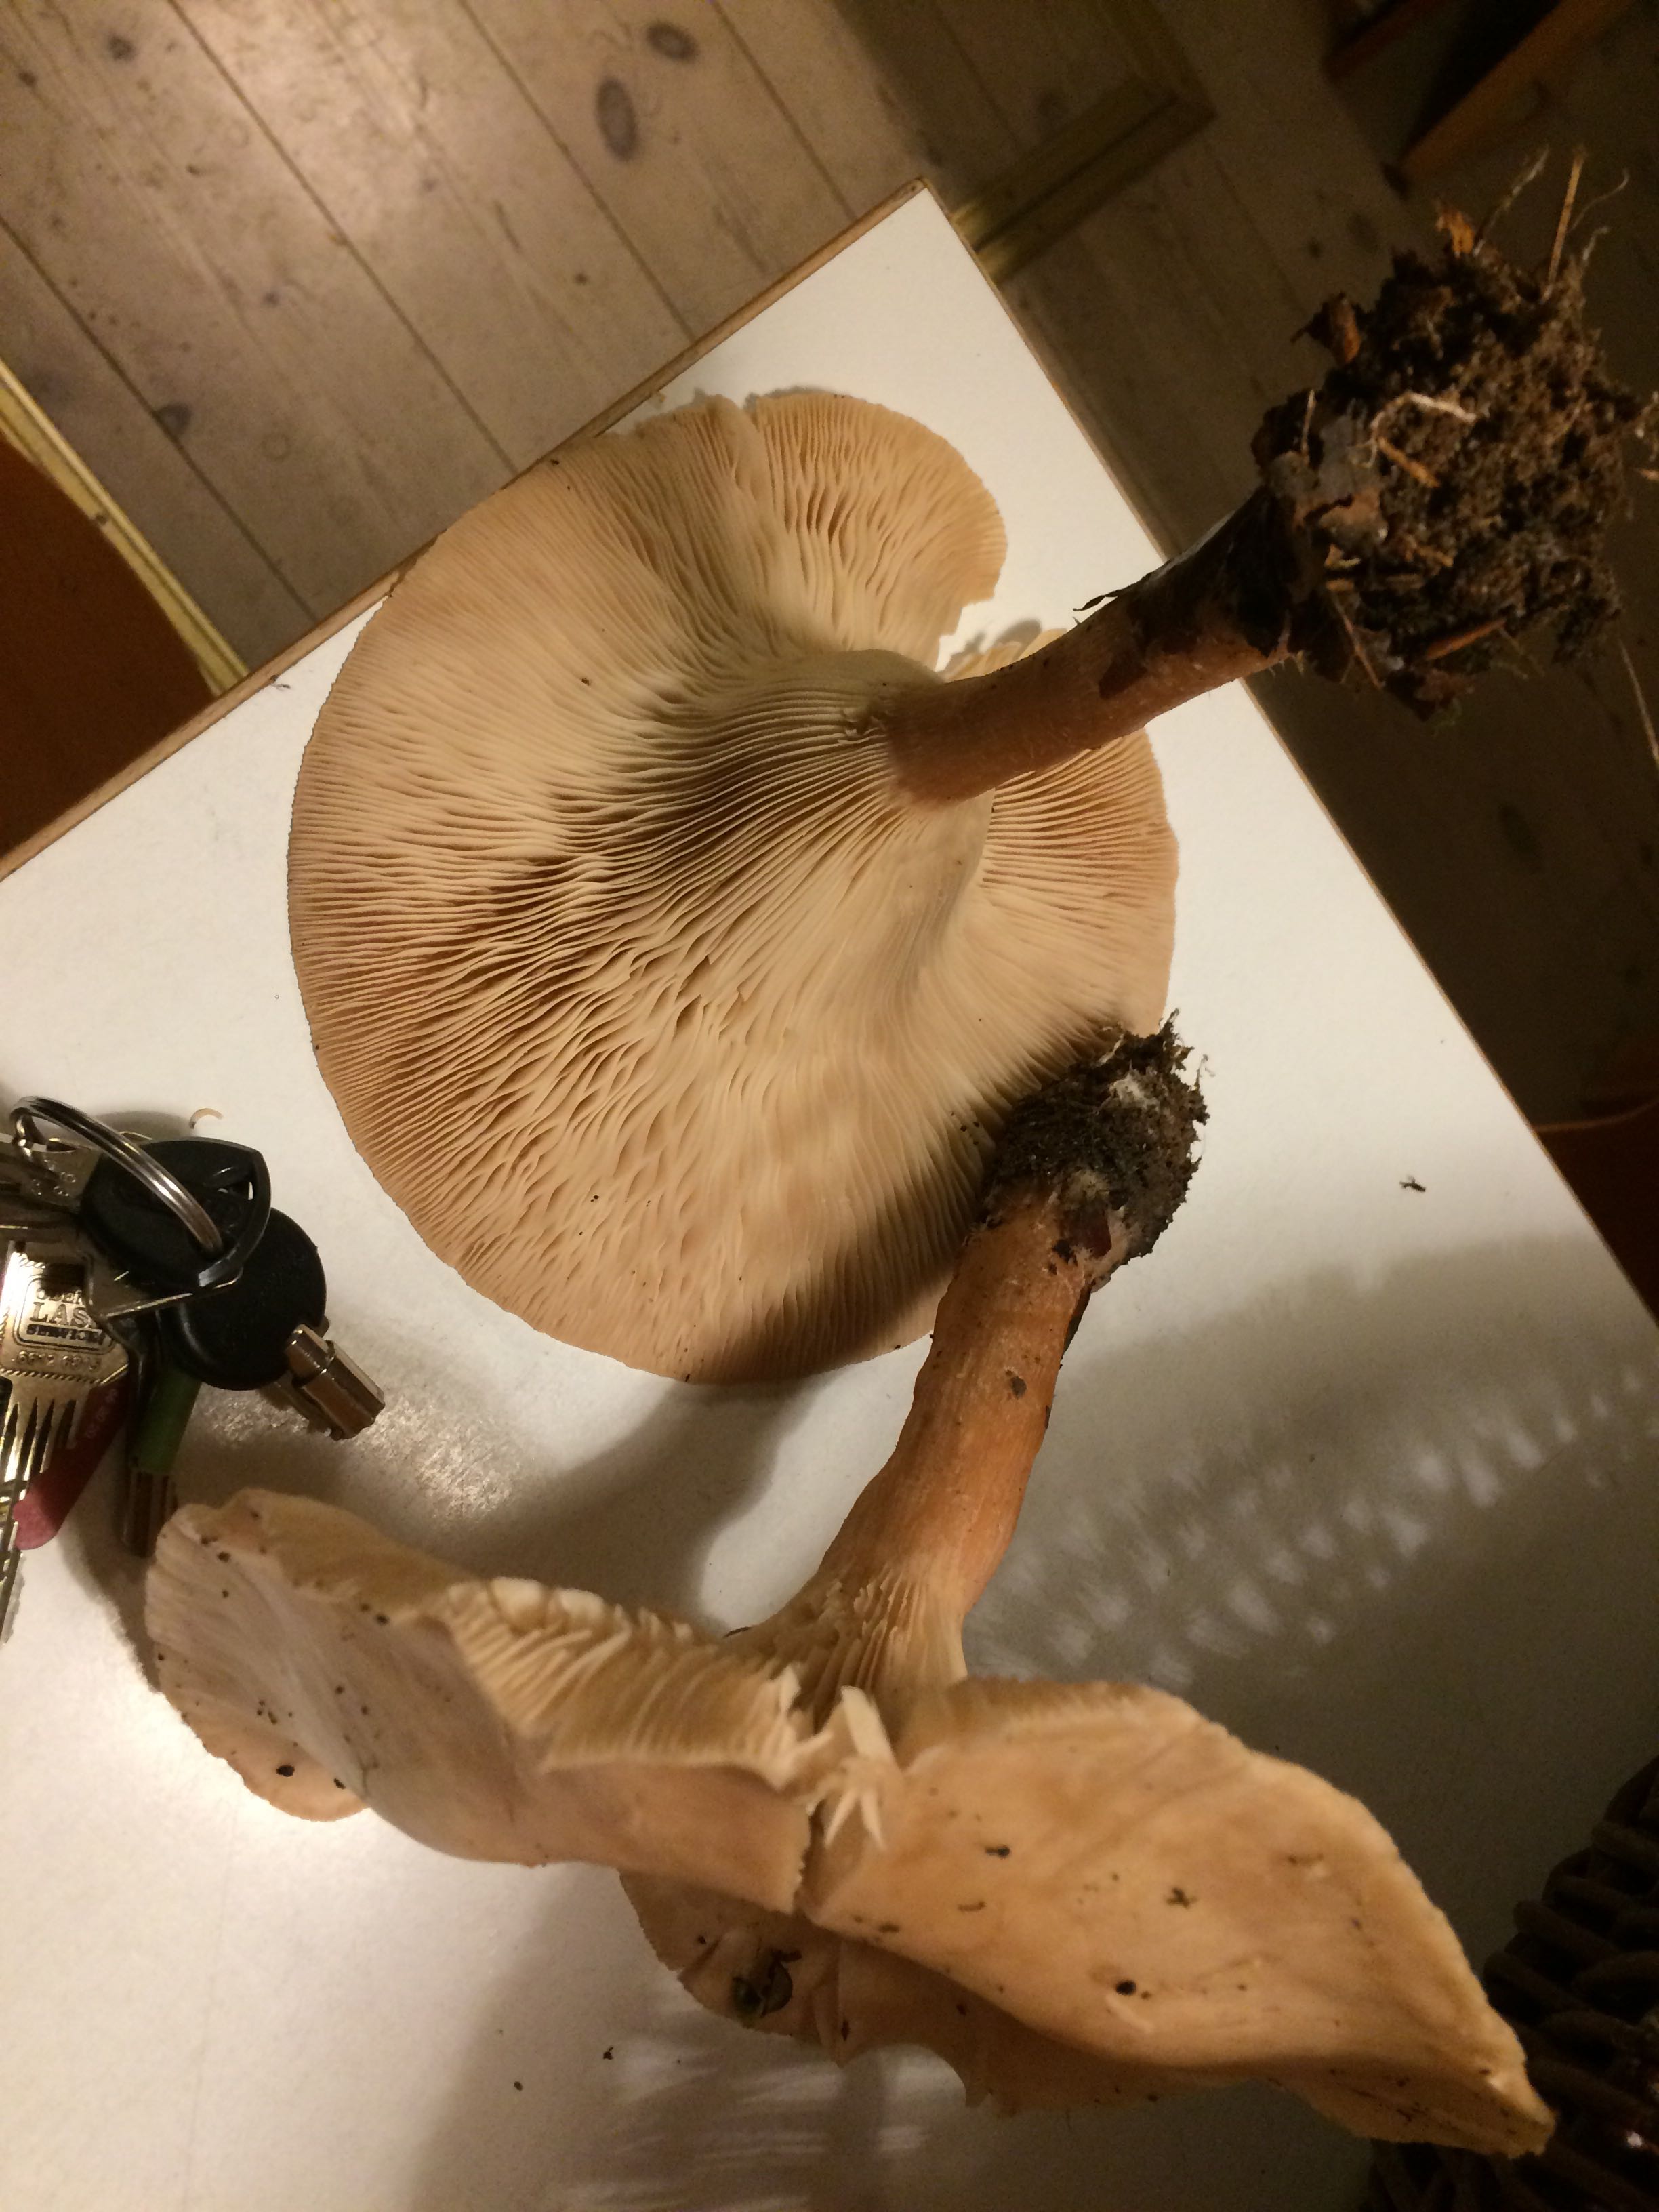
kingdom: Fungi
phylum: Basidiomycota
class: Agaricomycetes
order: Agaricales
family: Tricholomataceae
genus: Infundibulicybe
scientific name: Infundibulicybe geotropa
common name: stor tragthat
